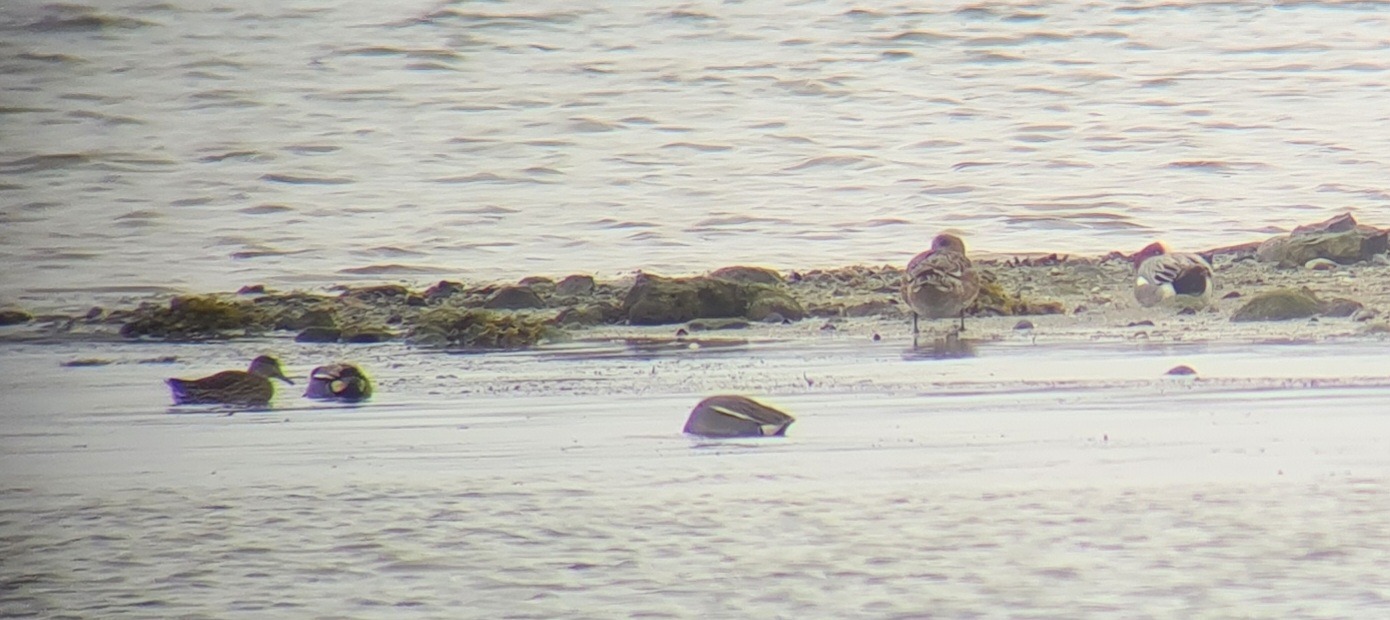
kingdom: Animalia
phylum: Chordata
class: Aves
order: Anseriformes
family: Anatidae
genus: Anas
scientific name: Anas crecca
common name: Krikand
